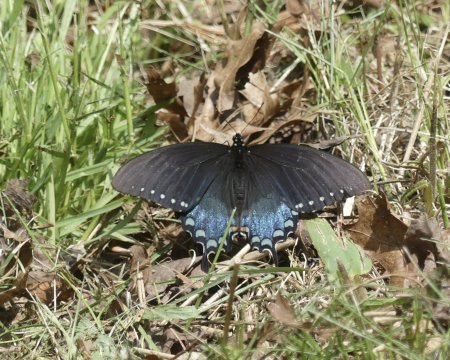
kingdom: Animalia
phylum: Arthropoda
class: Insecta
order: Lepidoptera
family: Papilionidae
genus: Pterourus
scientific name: Pterourus troilus
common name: Spicebush Swallowtail
